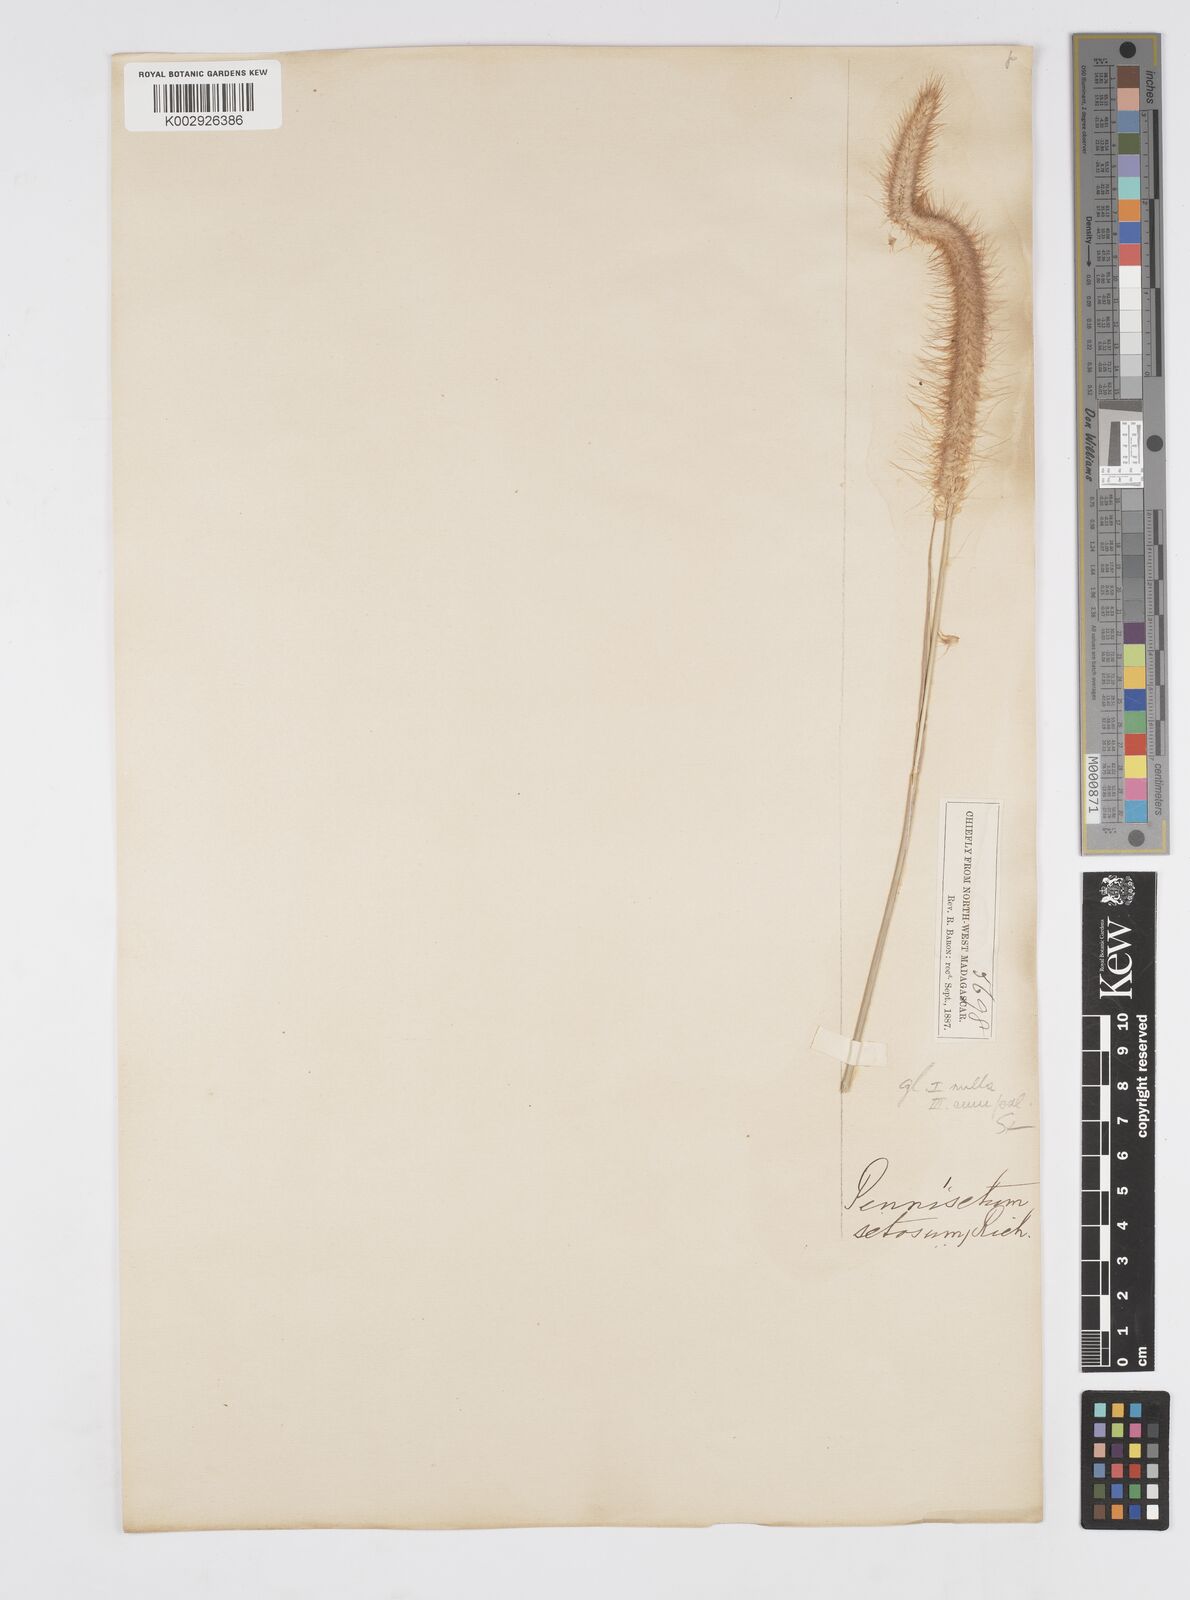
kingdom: Plantae
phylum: Tracheophyta
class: Liliopsida
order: Poales
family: Poaceae
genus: Setaria
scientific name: Setaria parviflora
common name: Knotroot bristle-grass
